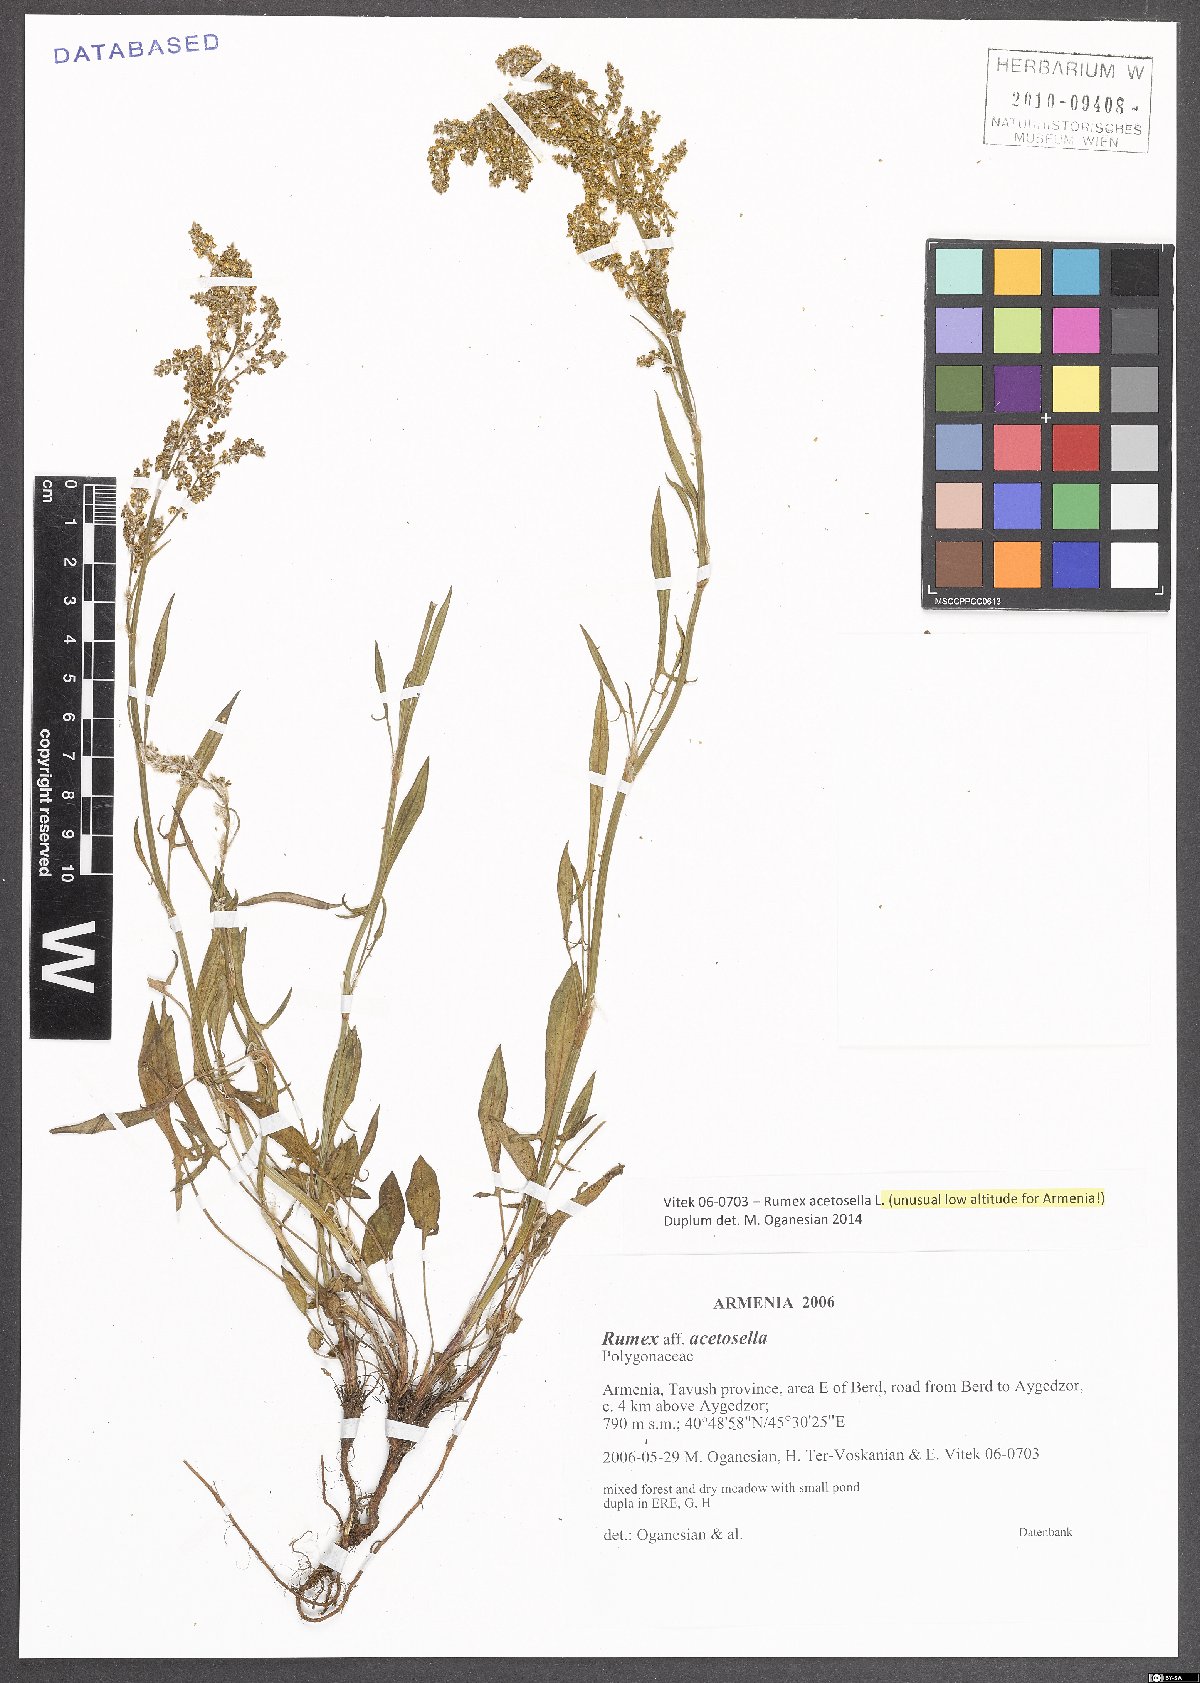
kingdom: Plantae
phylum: Tracheophyta
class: Magnoliopsida
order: Caryophyllales
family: Polygonaceae
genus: Rumex
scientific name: Rumex acetosella
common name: Common sheep sorrel
